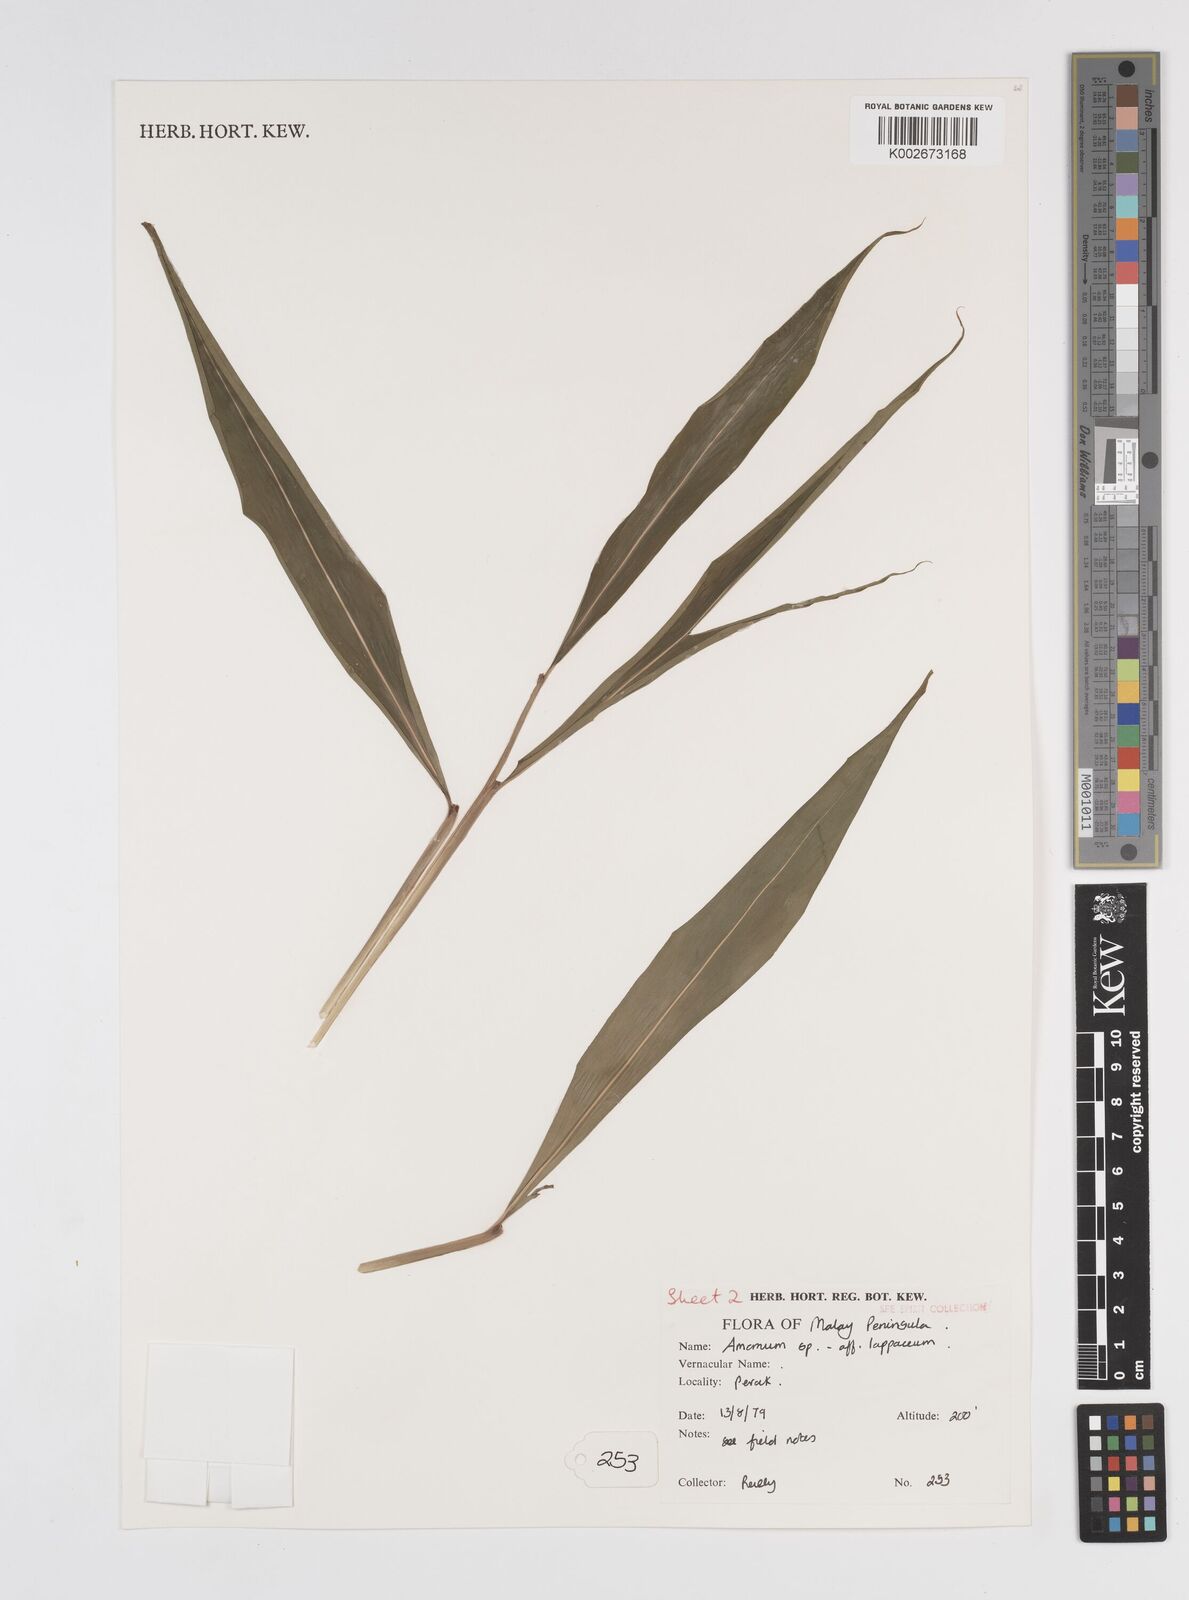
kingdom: Plantae
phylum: Tracheophyta
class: Liliopsida
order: Zingiberales
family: Zingiberaceae
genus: Meistera
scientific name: Meistera lappacea
